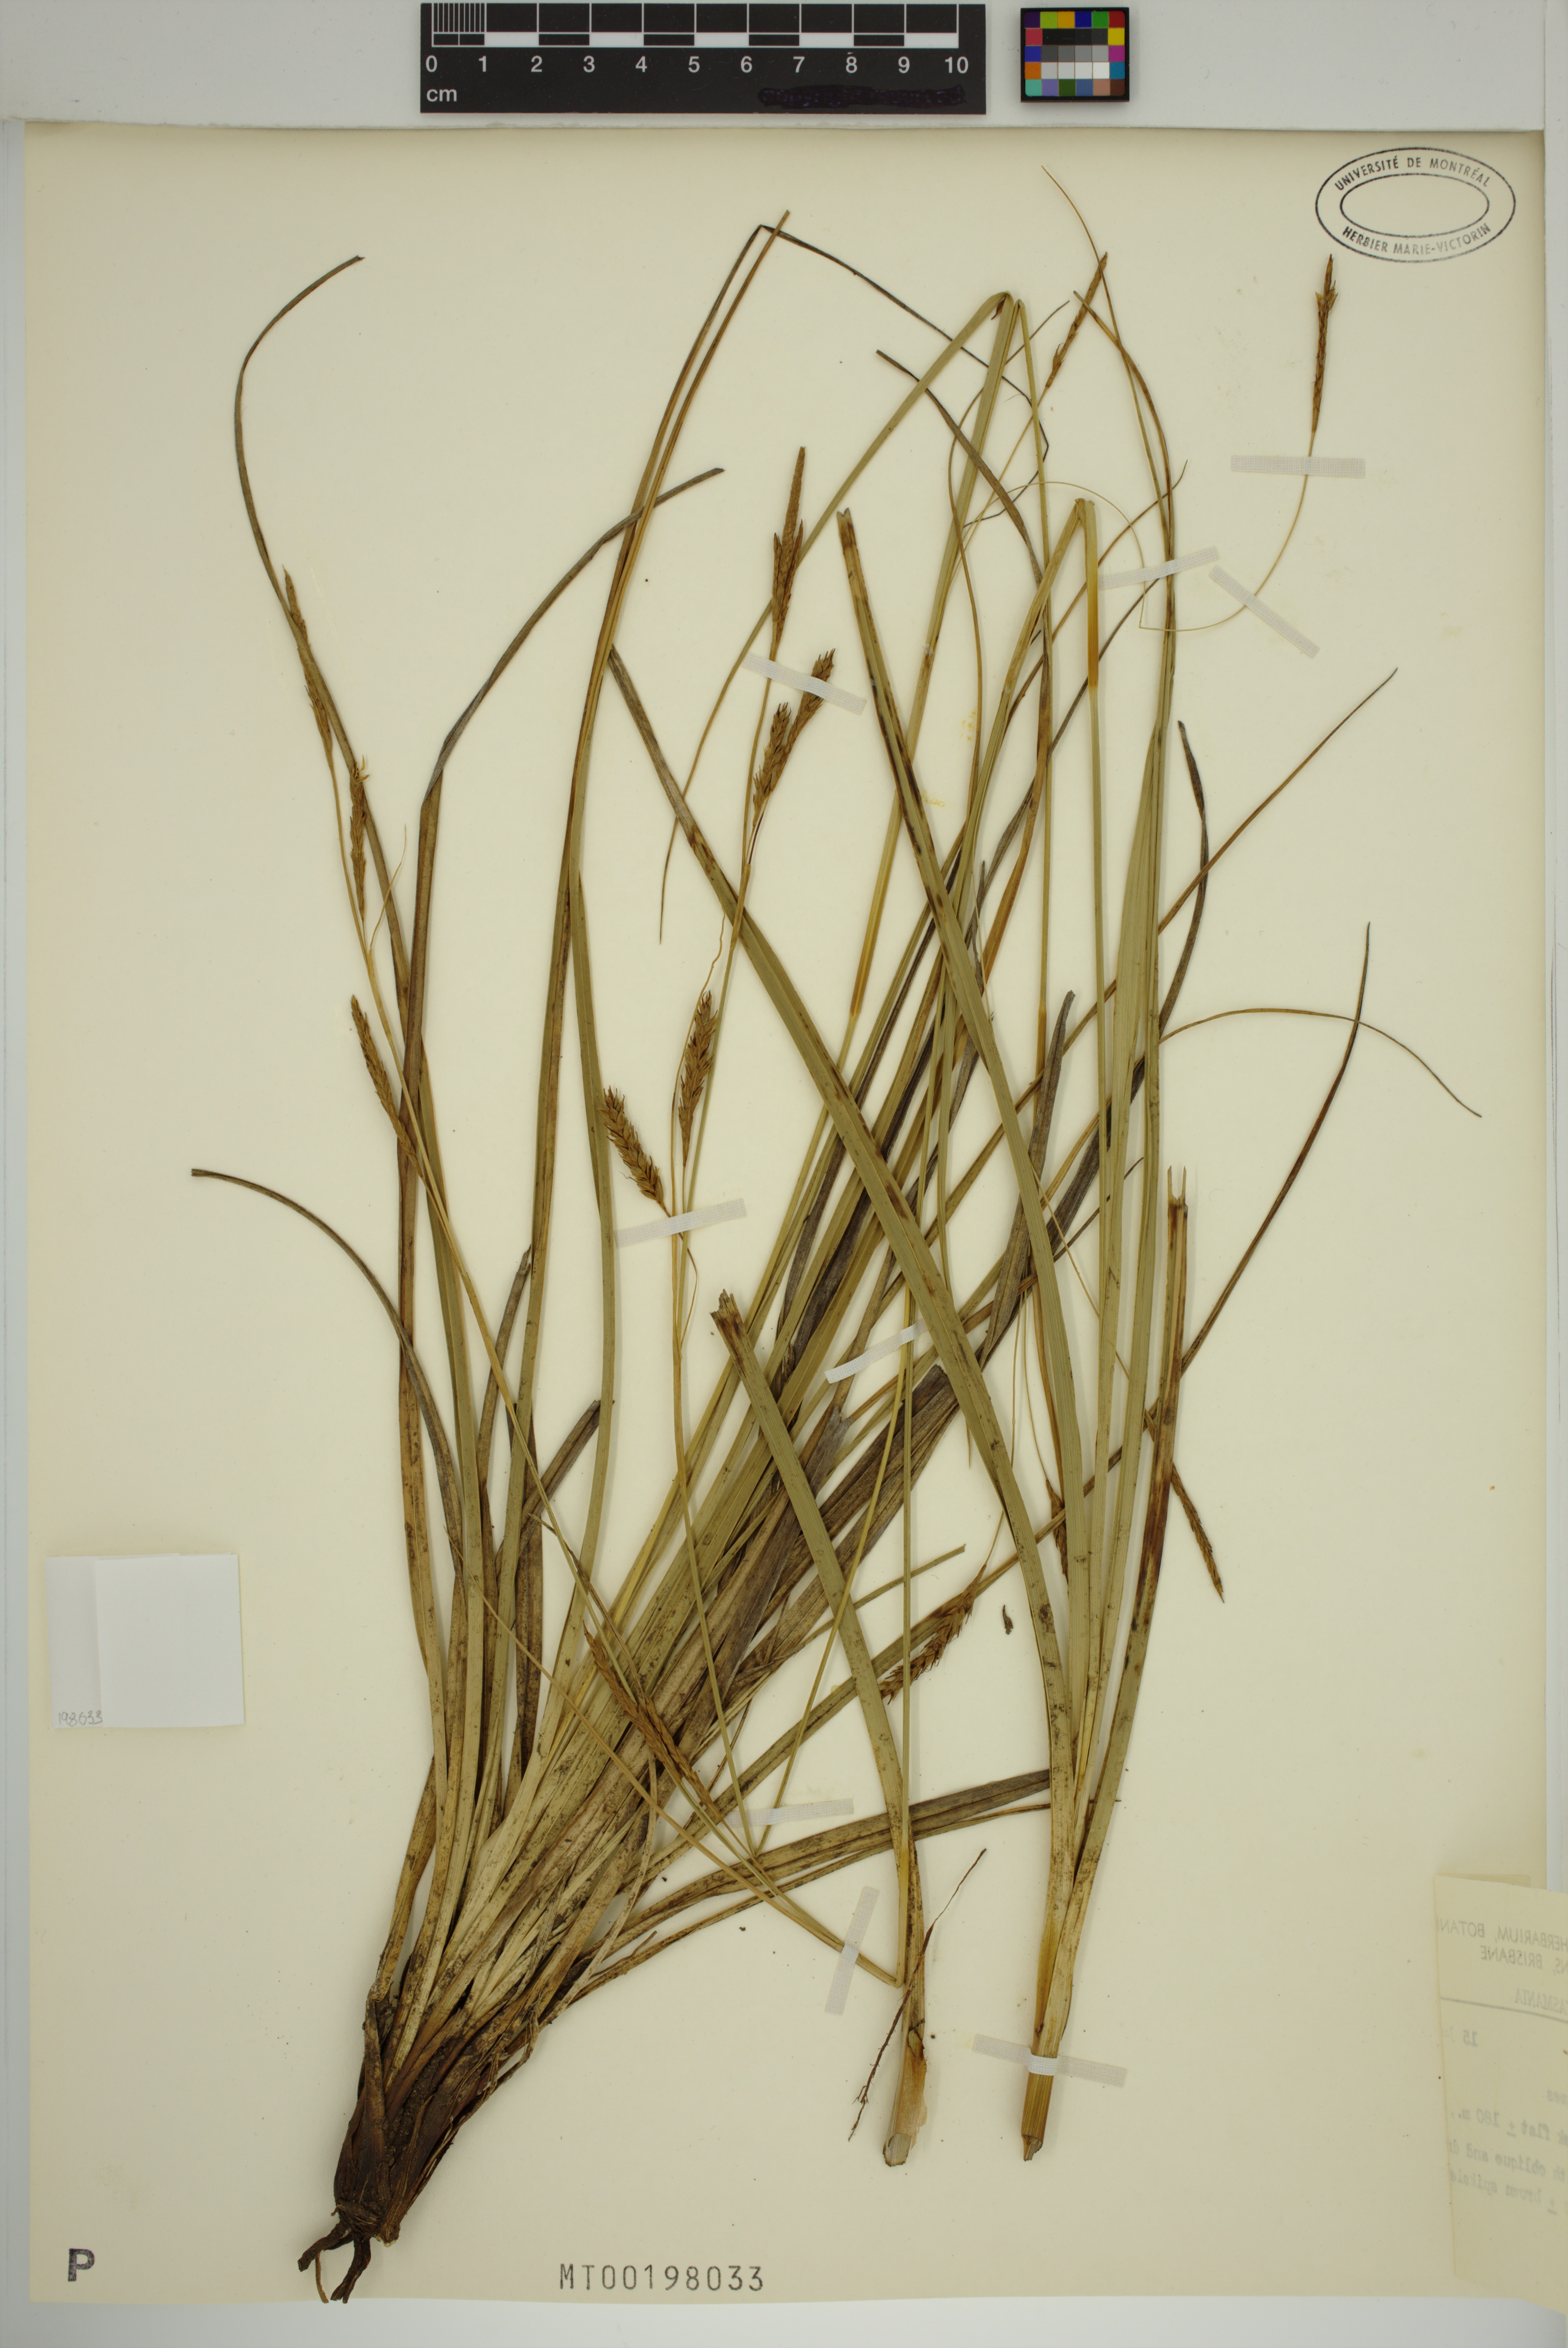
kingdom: Plantae
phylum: Tracheophyta
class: Liliopsida
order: Poales
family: Cyperaceae
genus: Carex
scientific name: Carex iynx
